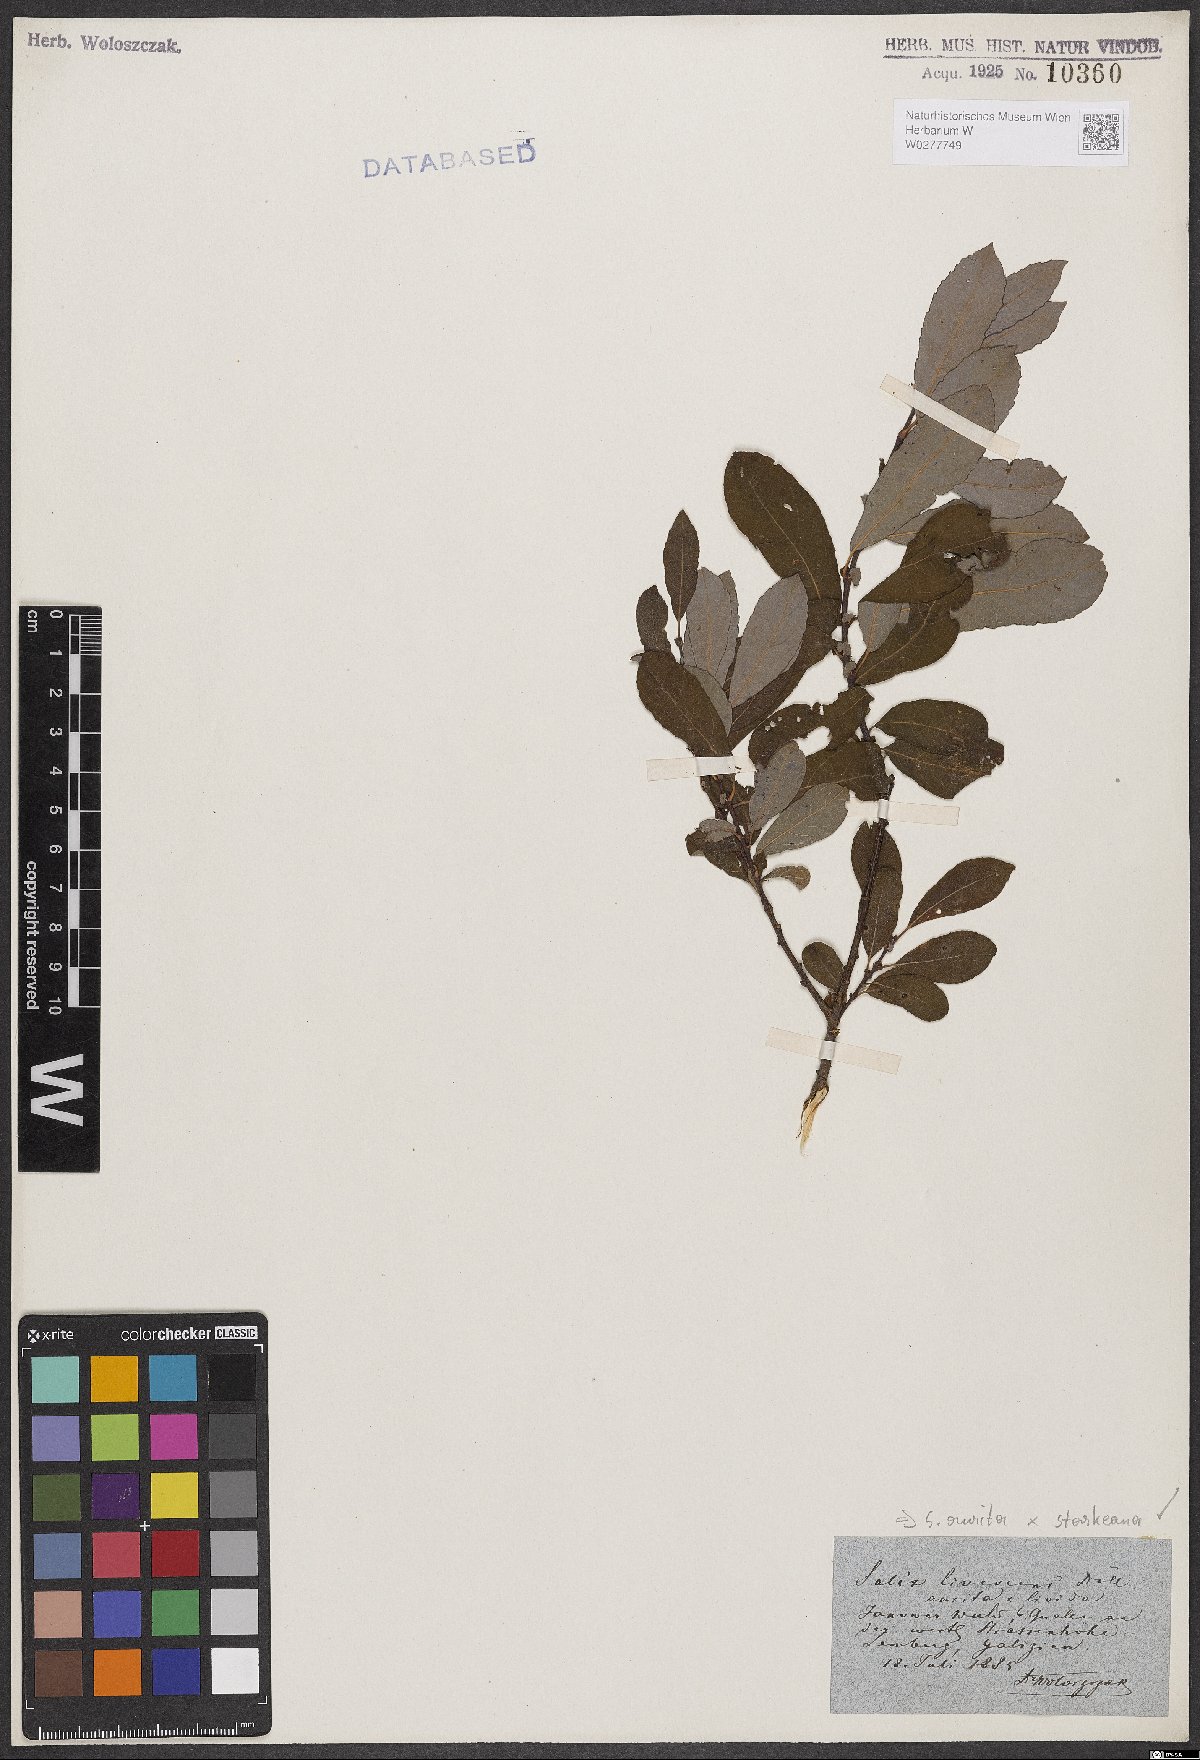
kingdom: Plantae
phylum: Tracheophyta
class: Magnoliopsida
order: Malpighiales
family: Salicaceae
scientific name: Salicaceae
